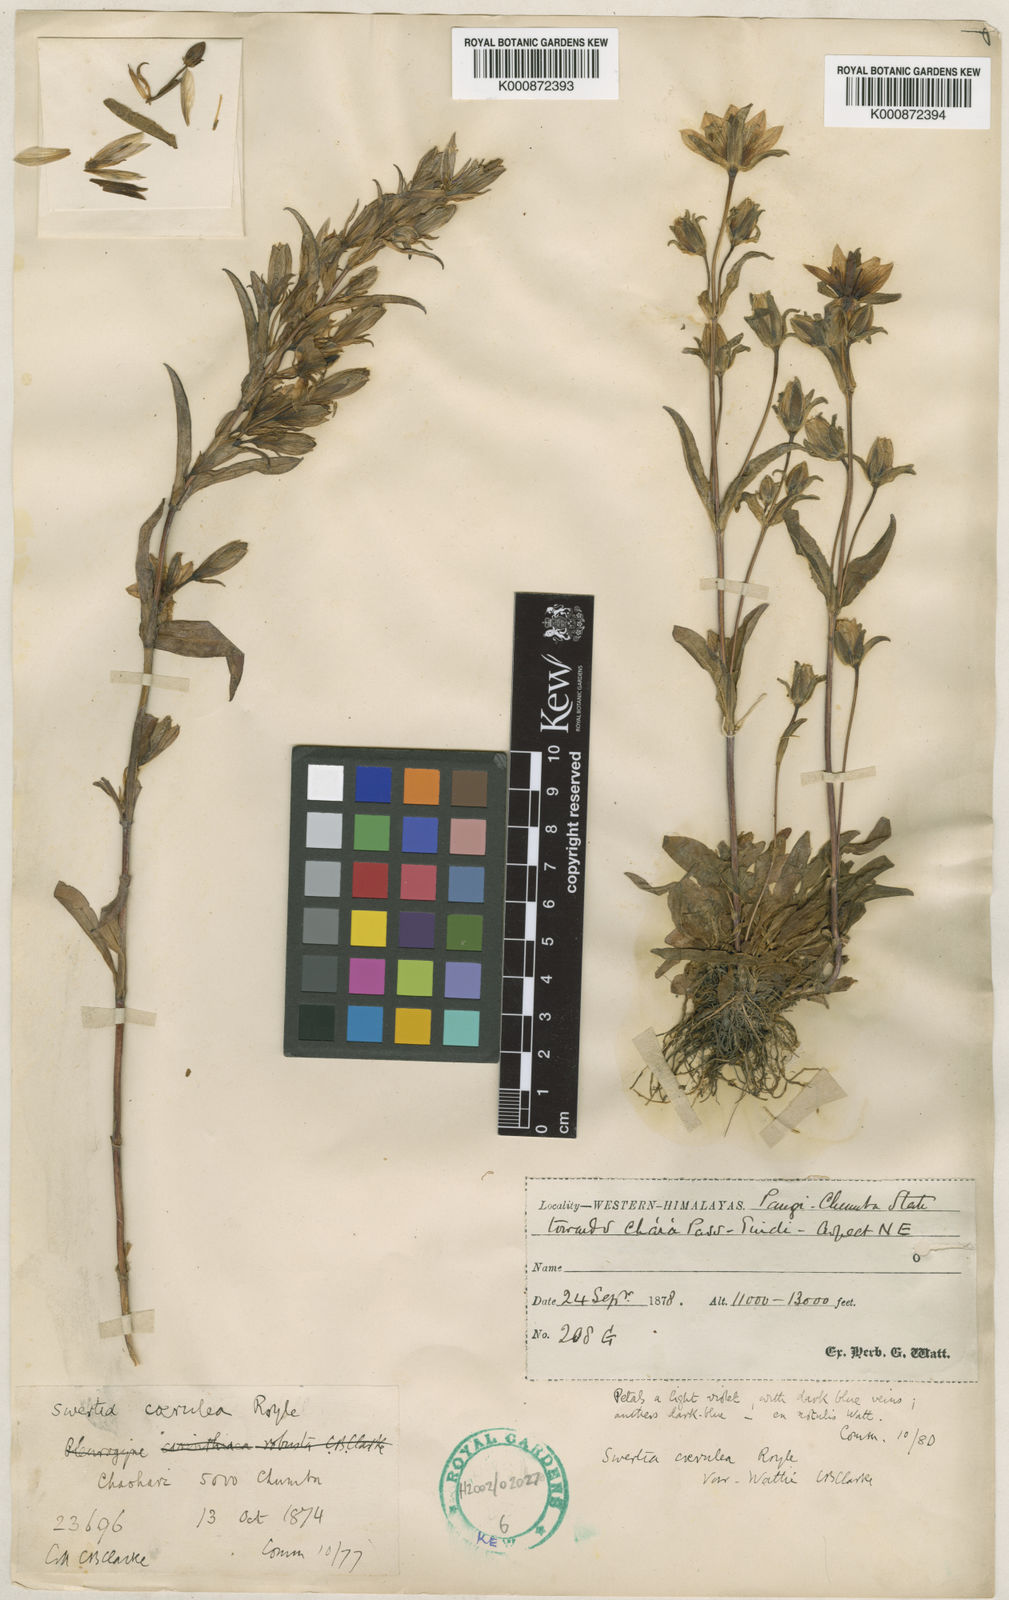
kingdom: Plantae
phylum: Tracheophyta
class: Magnoliopsida
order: Gentianales
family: Gentianaceae
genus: Lomatogonium
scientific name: Lomatogonium caeruleum
